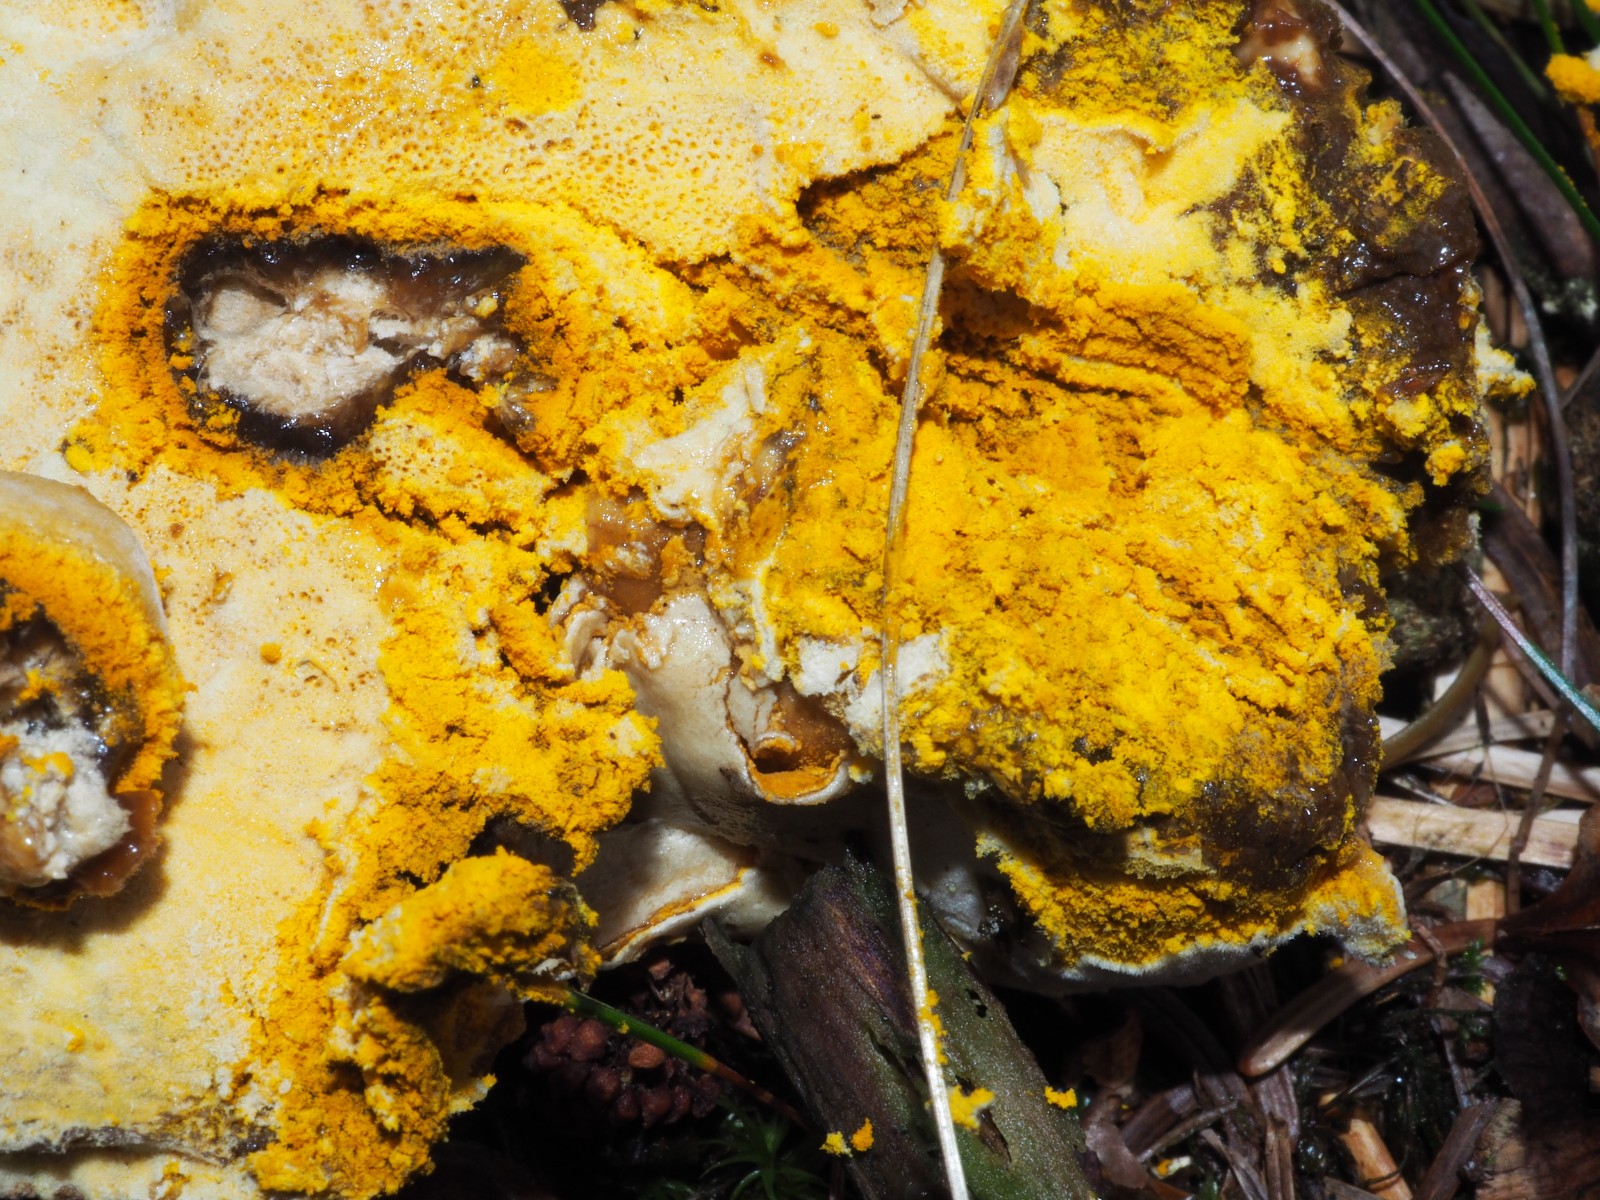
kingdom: Fungi
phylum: Ascomycota
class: Sordariomycetes
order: Hypocreales
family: Hypocreaceae
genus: Hypomyces
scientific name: Hypomyces microspermus
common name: dværgrørhat-snylteskorpe
